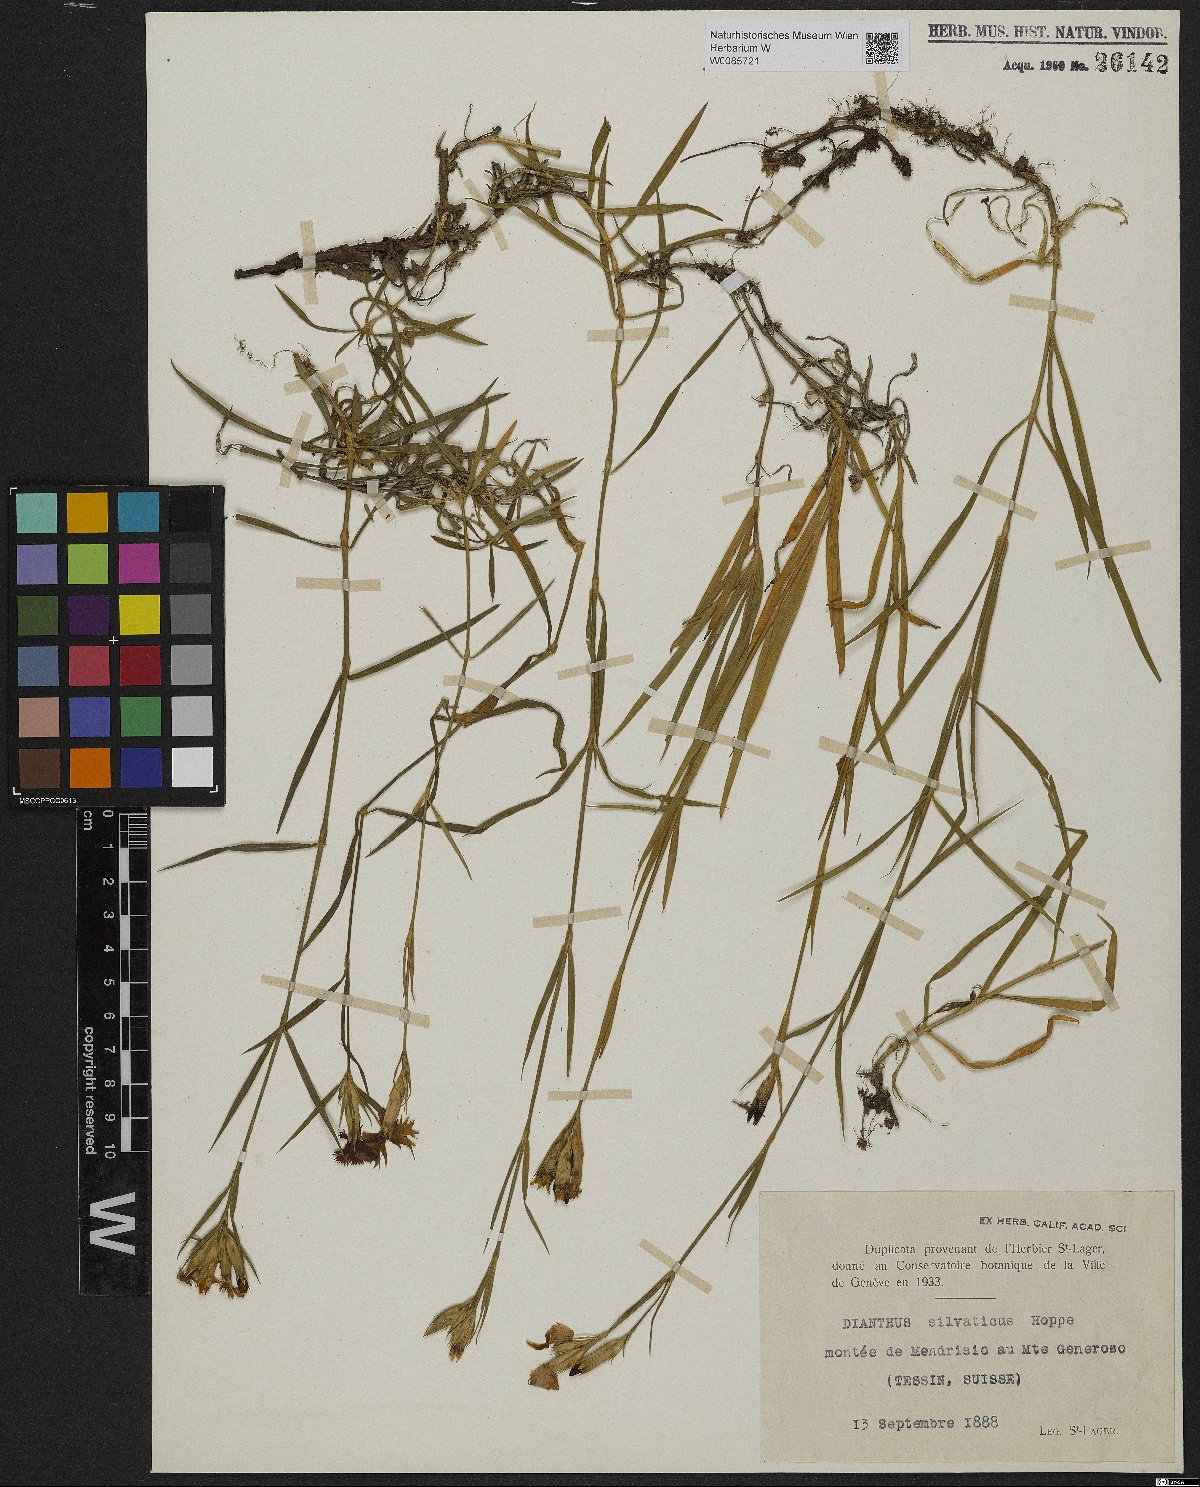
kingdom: Plantae
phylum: Tracheophyta
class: Magnoliopsida
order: Caryophyllales
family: Caryophyllaceae
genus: Dianthus
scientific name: Dianthus seguieri
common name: Ragged pink
